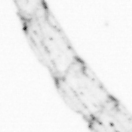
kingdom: Animalia
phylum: Arthropoda
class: Copepoda
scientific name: Copepoda
